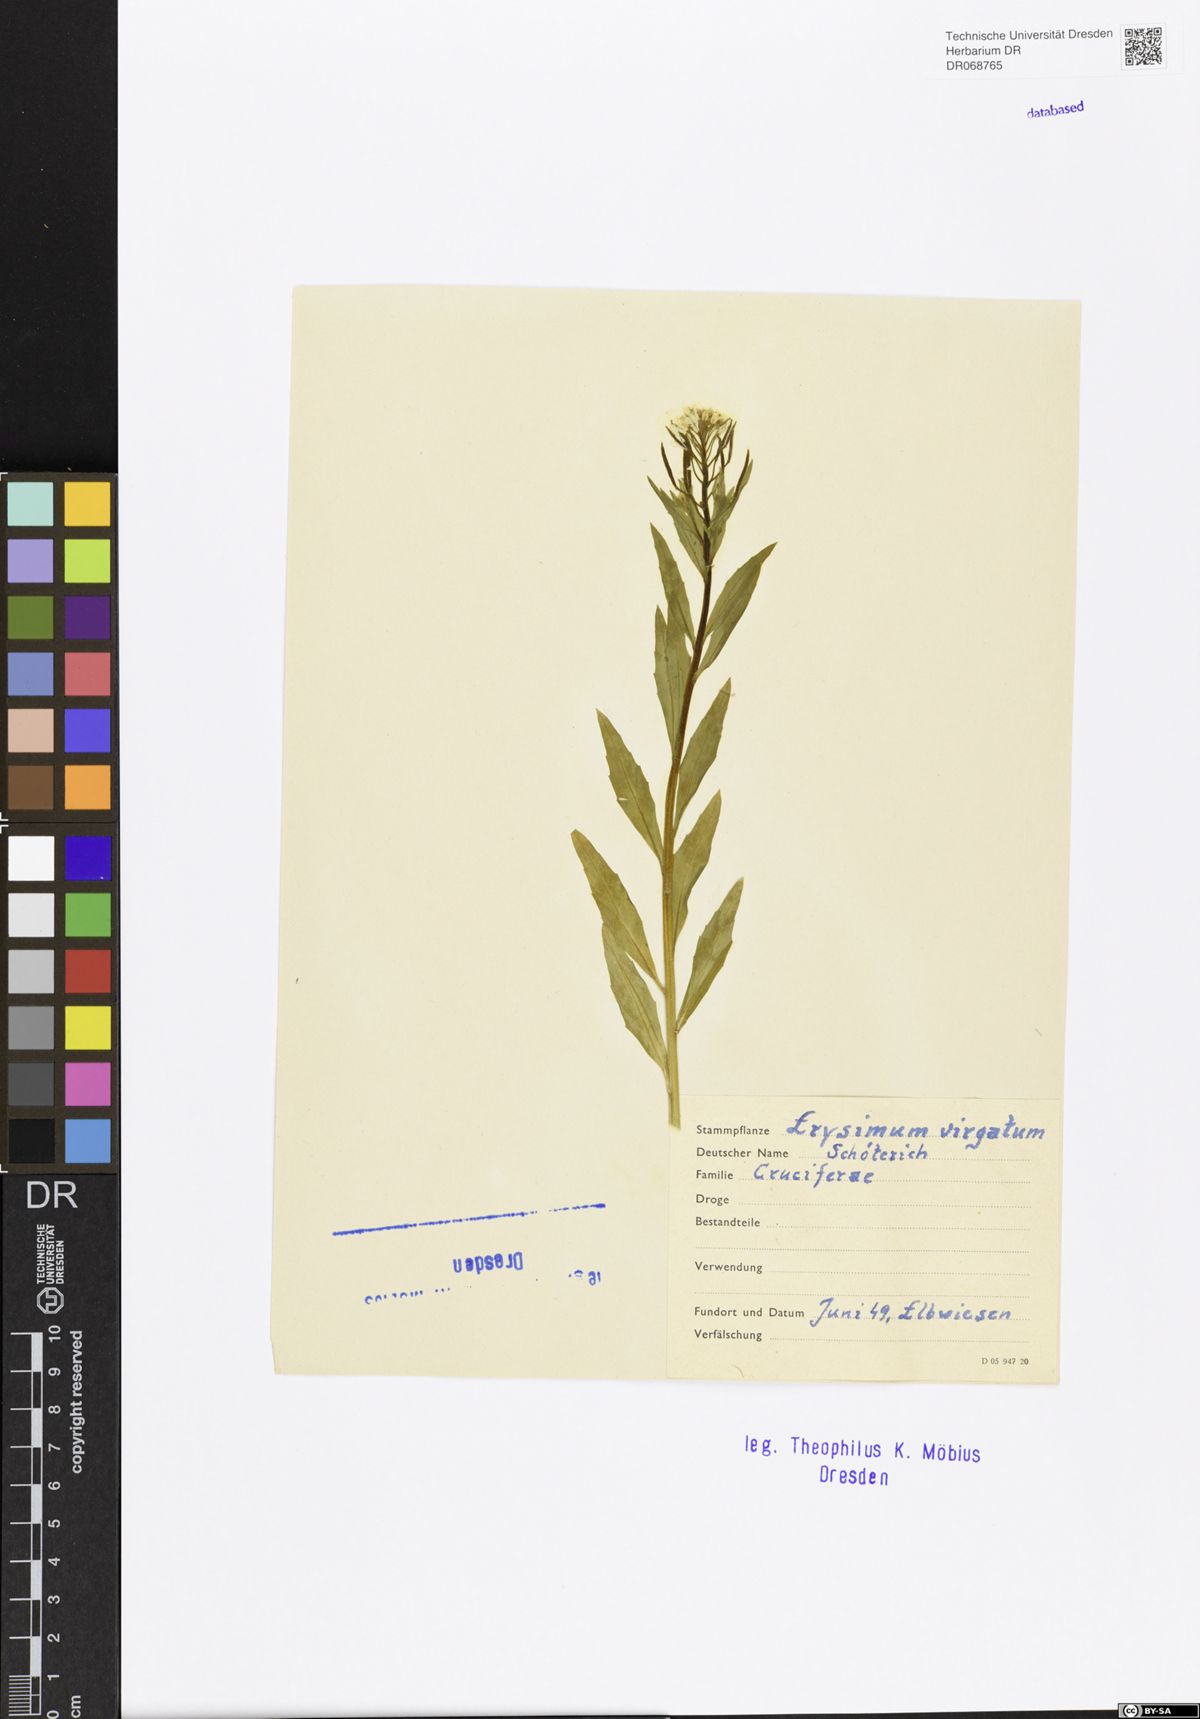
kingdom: Plantae
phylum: Tracheophyta
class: Magnoliopsida
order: Brassicales
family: Brassicaceae
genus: Erysimum
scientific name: Erysimum virgatum
